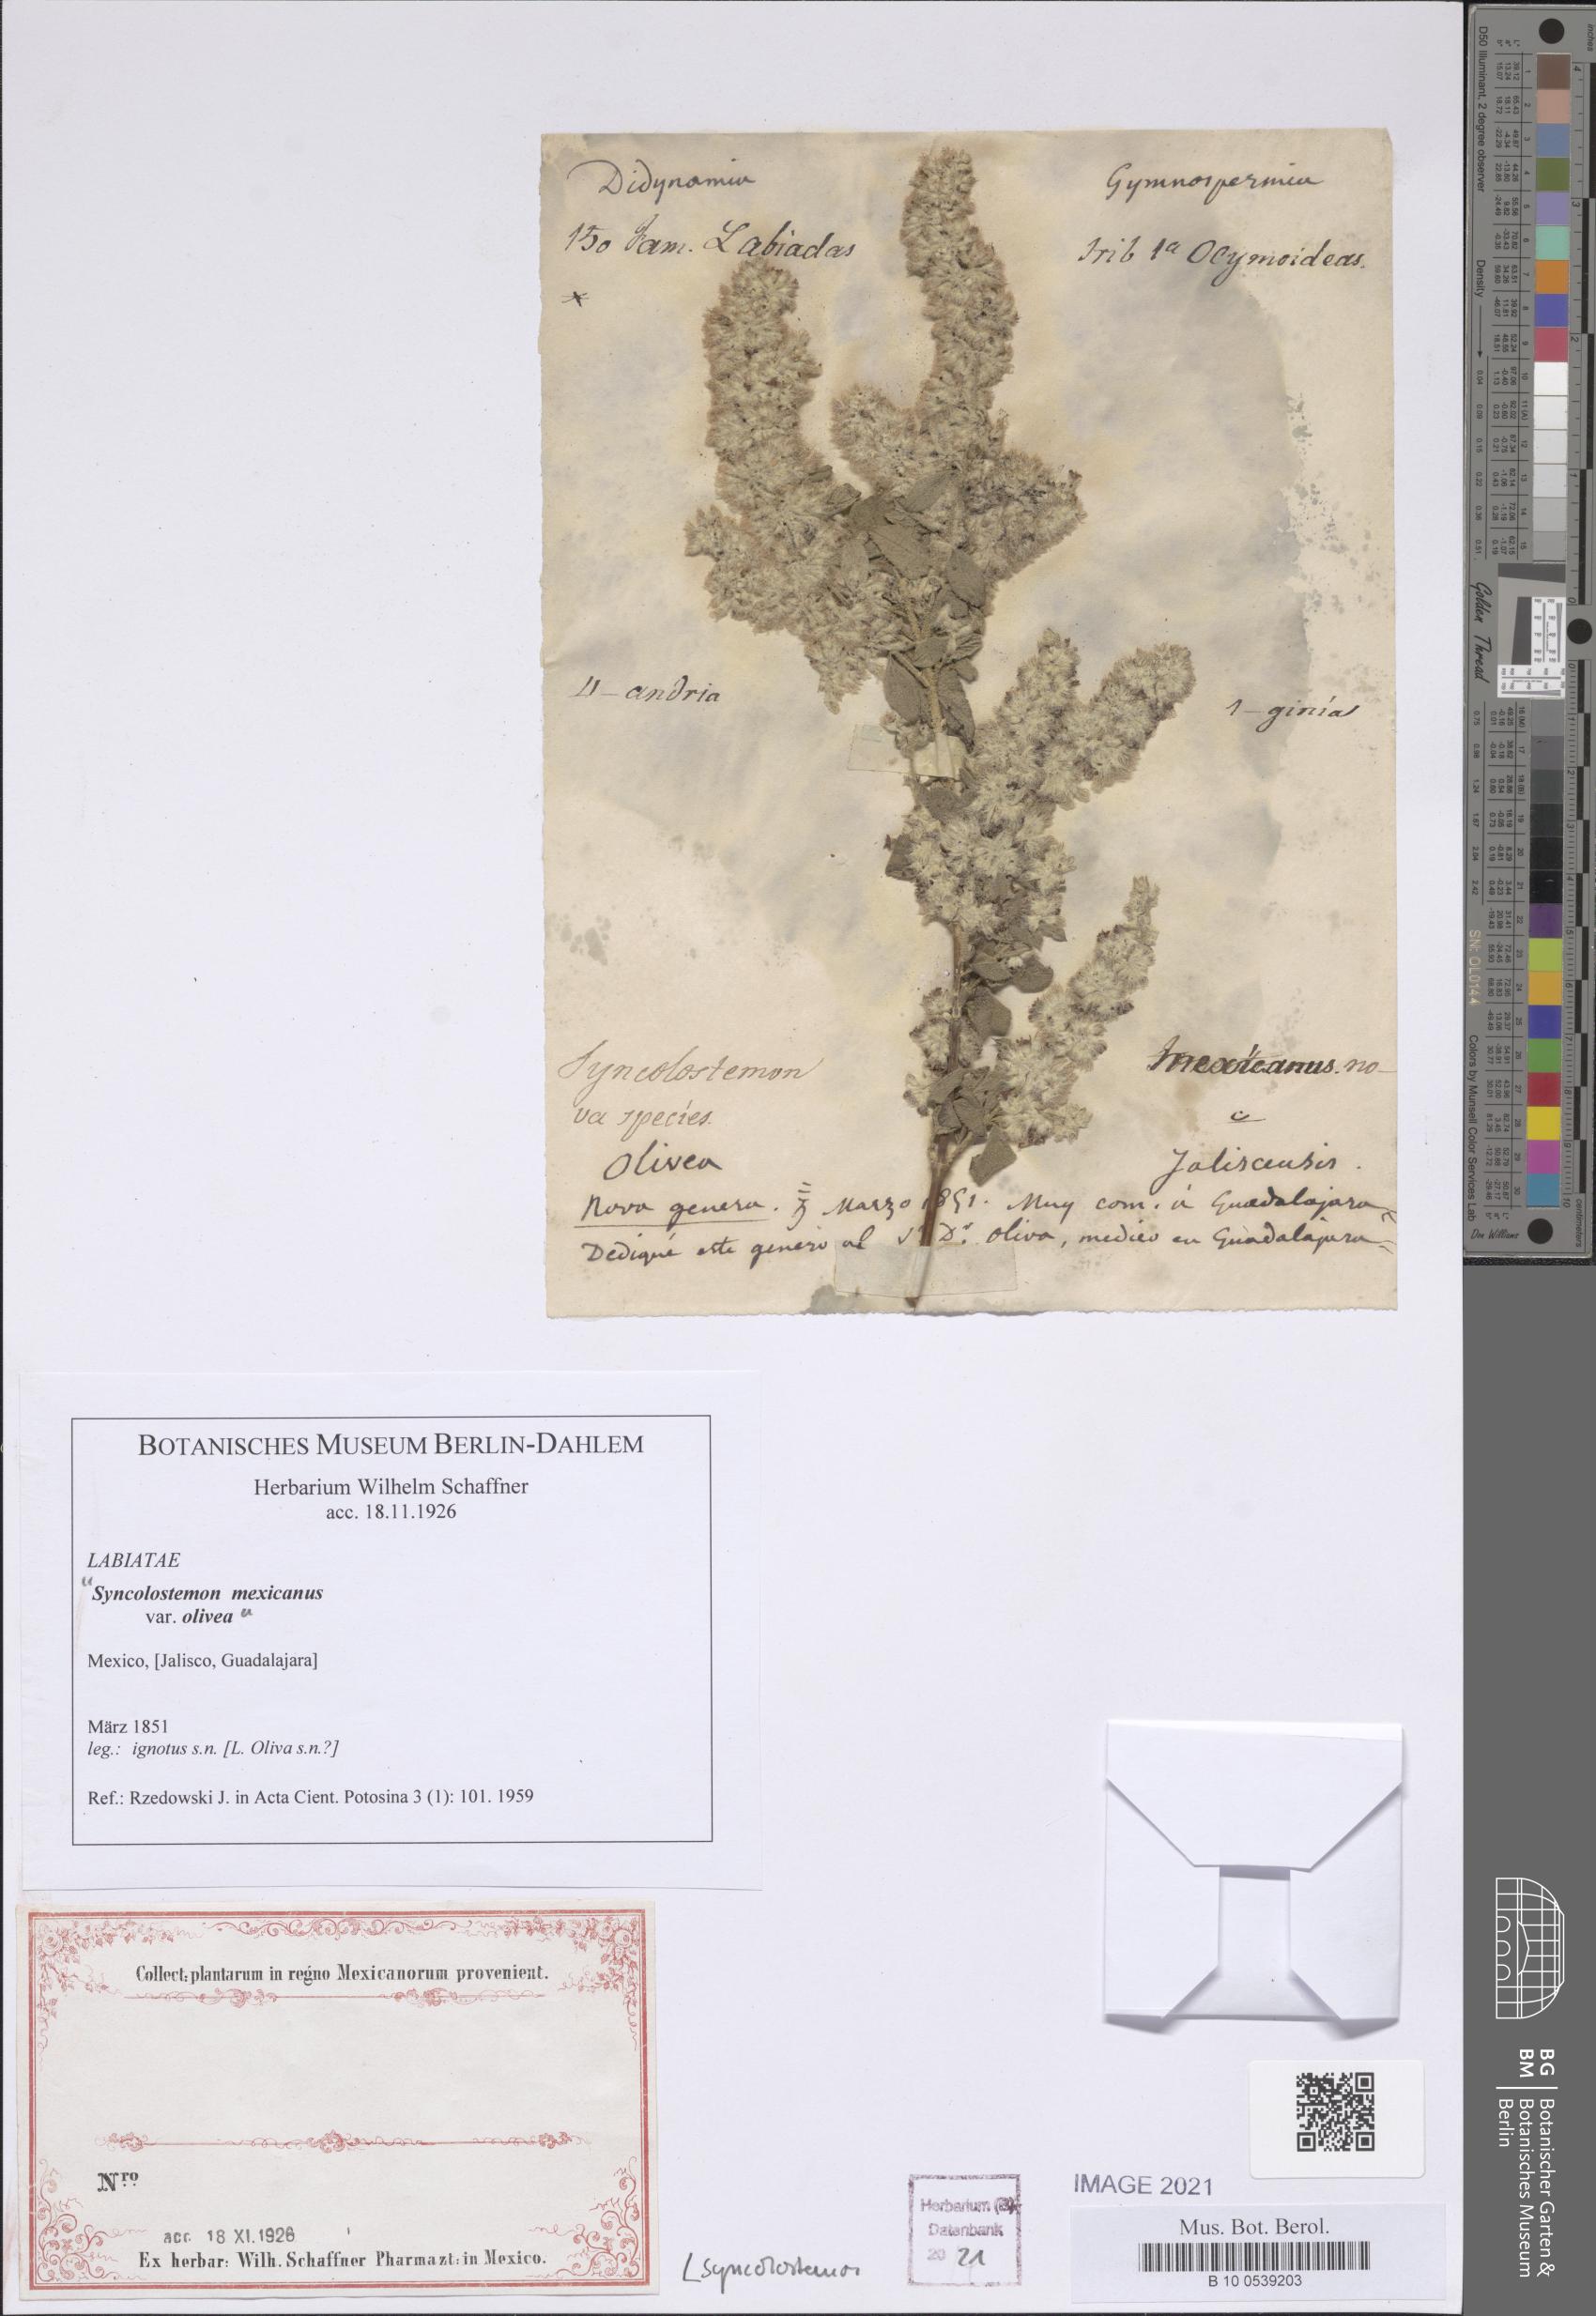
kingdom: Plantae
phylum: Tracheophyta
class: Magnoliopsida
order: Lamiales
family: Lamiaceae
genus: Syncolostemon
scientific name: Syncolostemon
